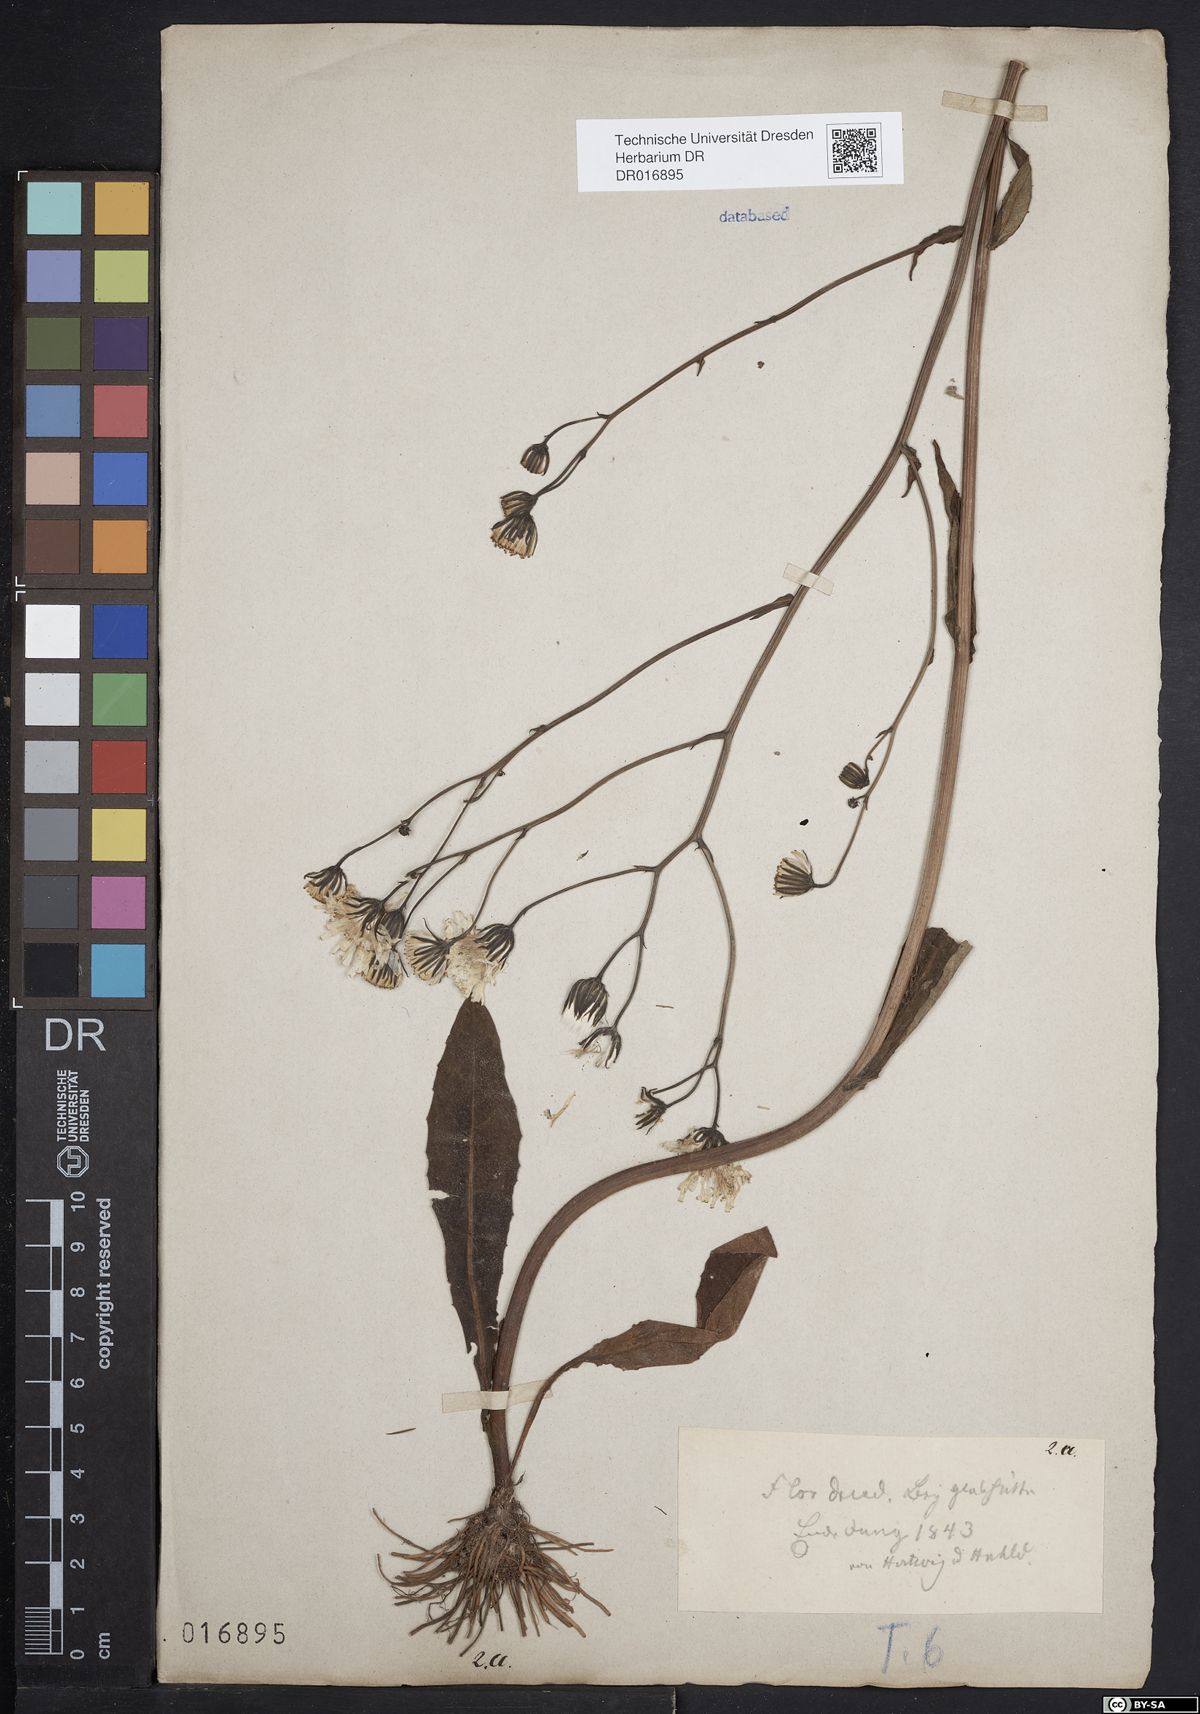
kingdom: Plantae
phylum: Tracheophyta
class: Magnoliopsida
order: Asterales
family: Asteraceae
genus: Crepis
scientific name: Crepis mollis
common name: Northern hawk's-beard
